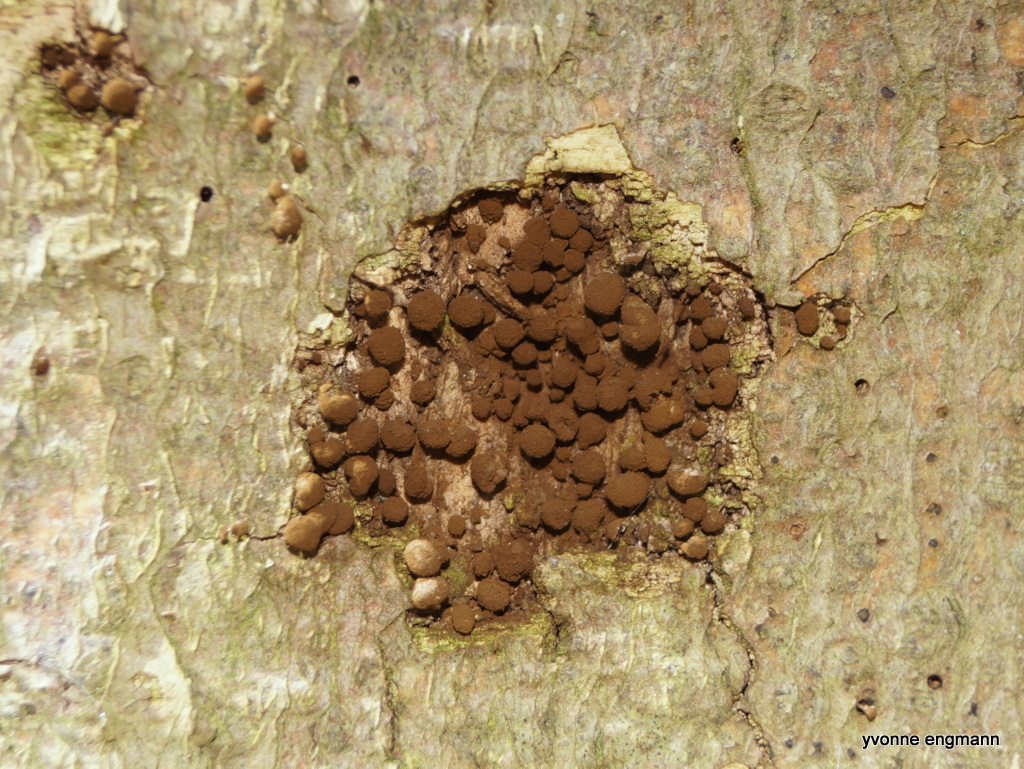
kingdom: Fungi
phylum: Basidiomycota
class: Atractiellomycetes
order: Atractiellales
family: Phleogenaceae
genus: Phleogena
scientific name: Phleogena faginea
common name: pudderkølle
